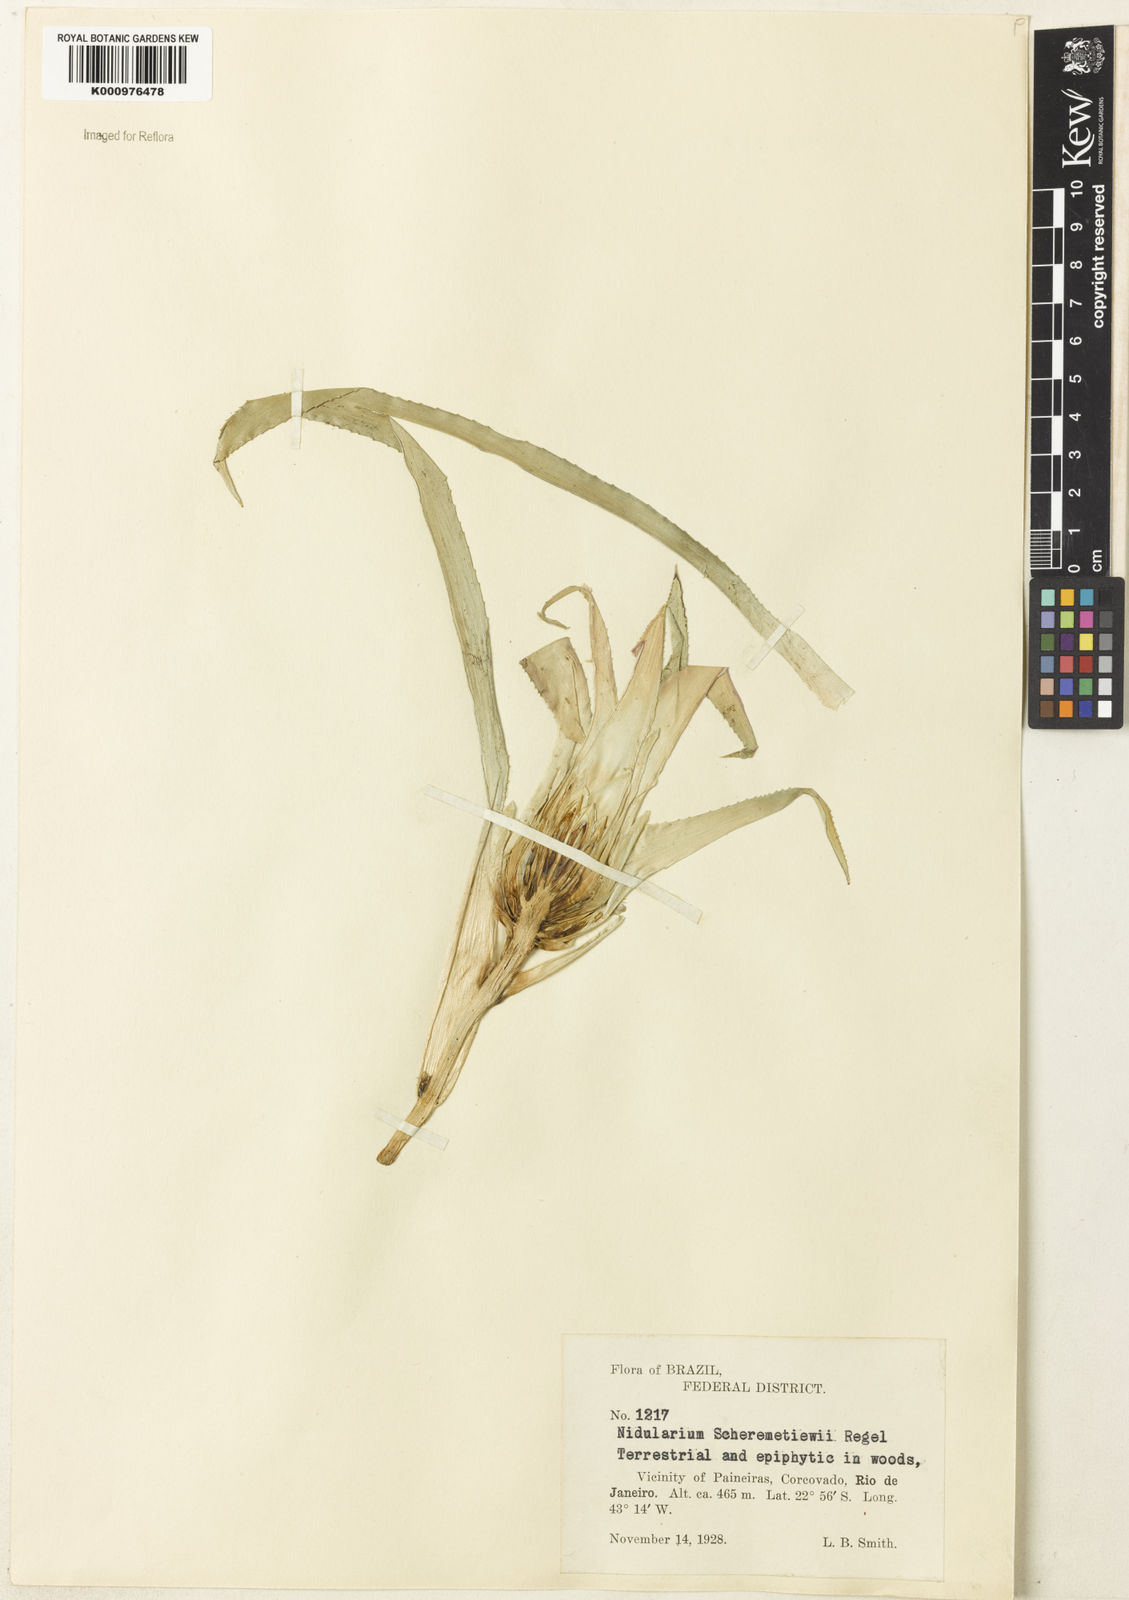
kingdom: Plantae
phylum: Tracheophyta
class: Liliopsida
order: Poales
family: Bromeliaceae
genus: Nidularium
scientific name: Nidularium scheremetiewii
